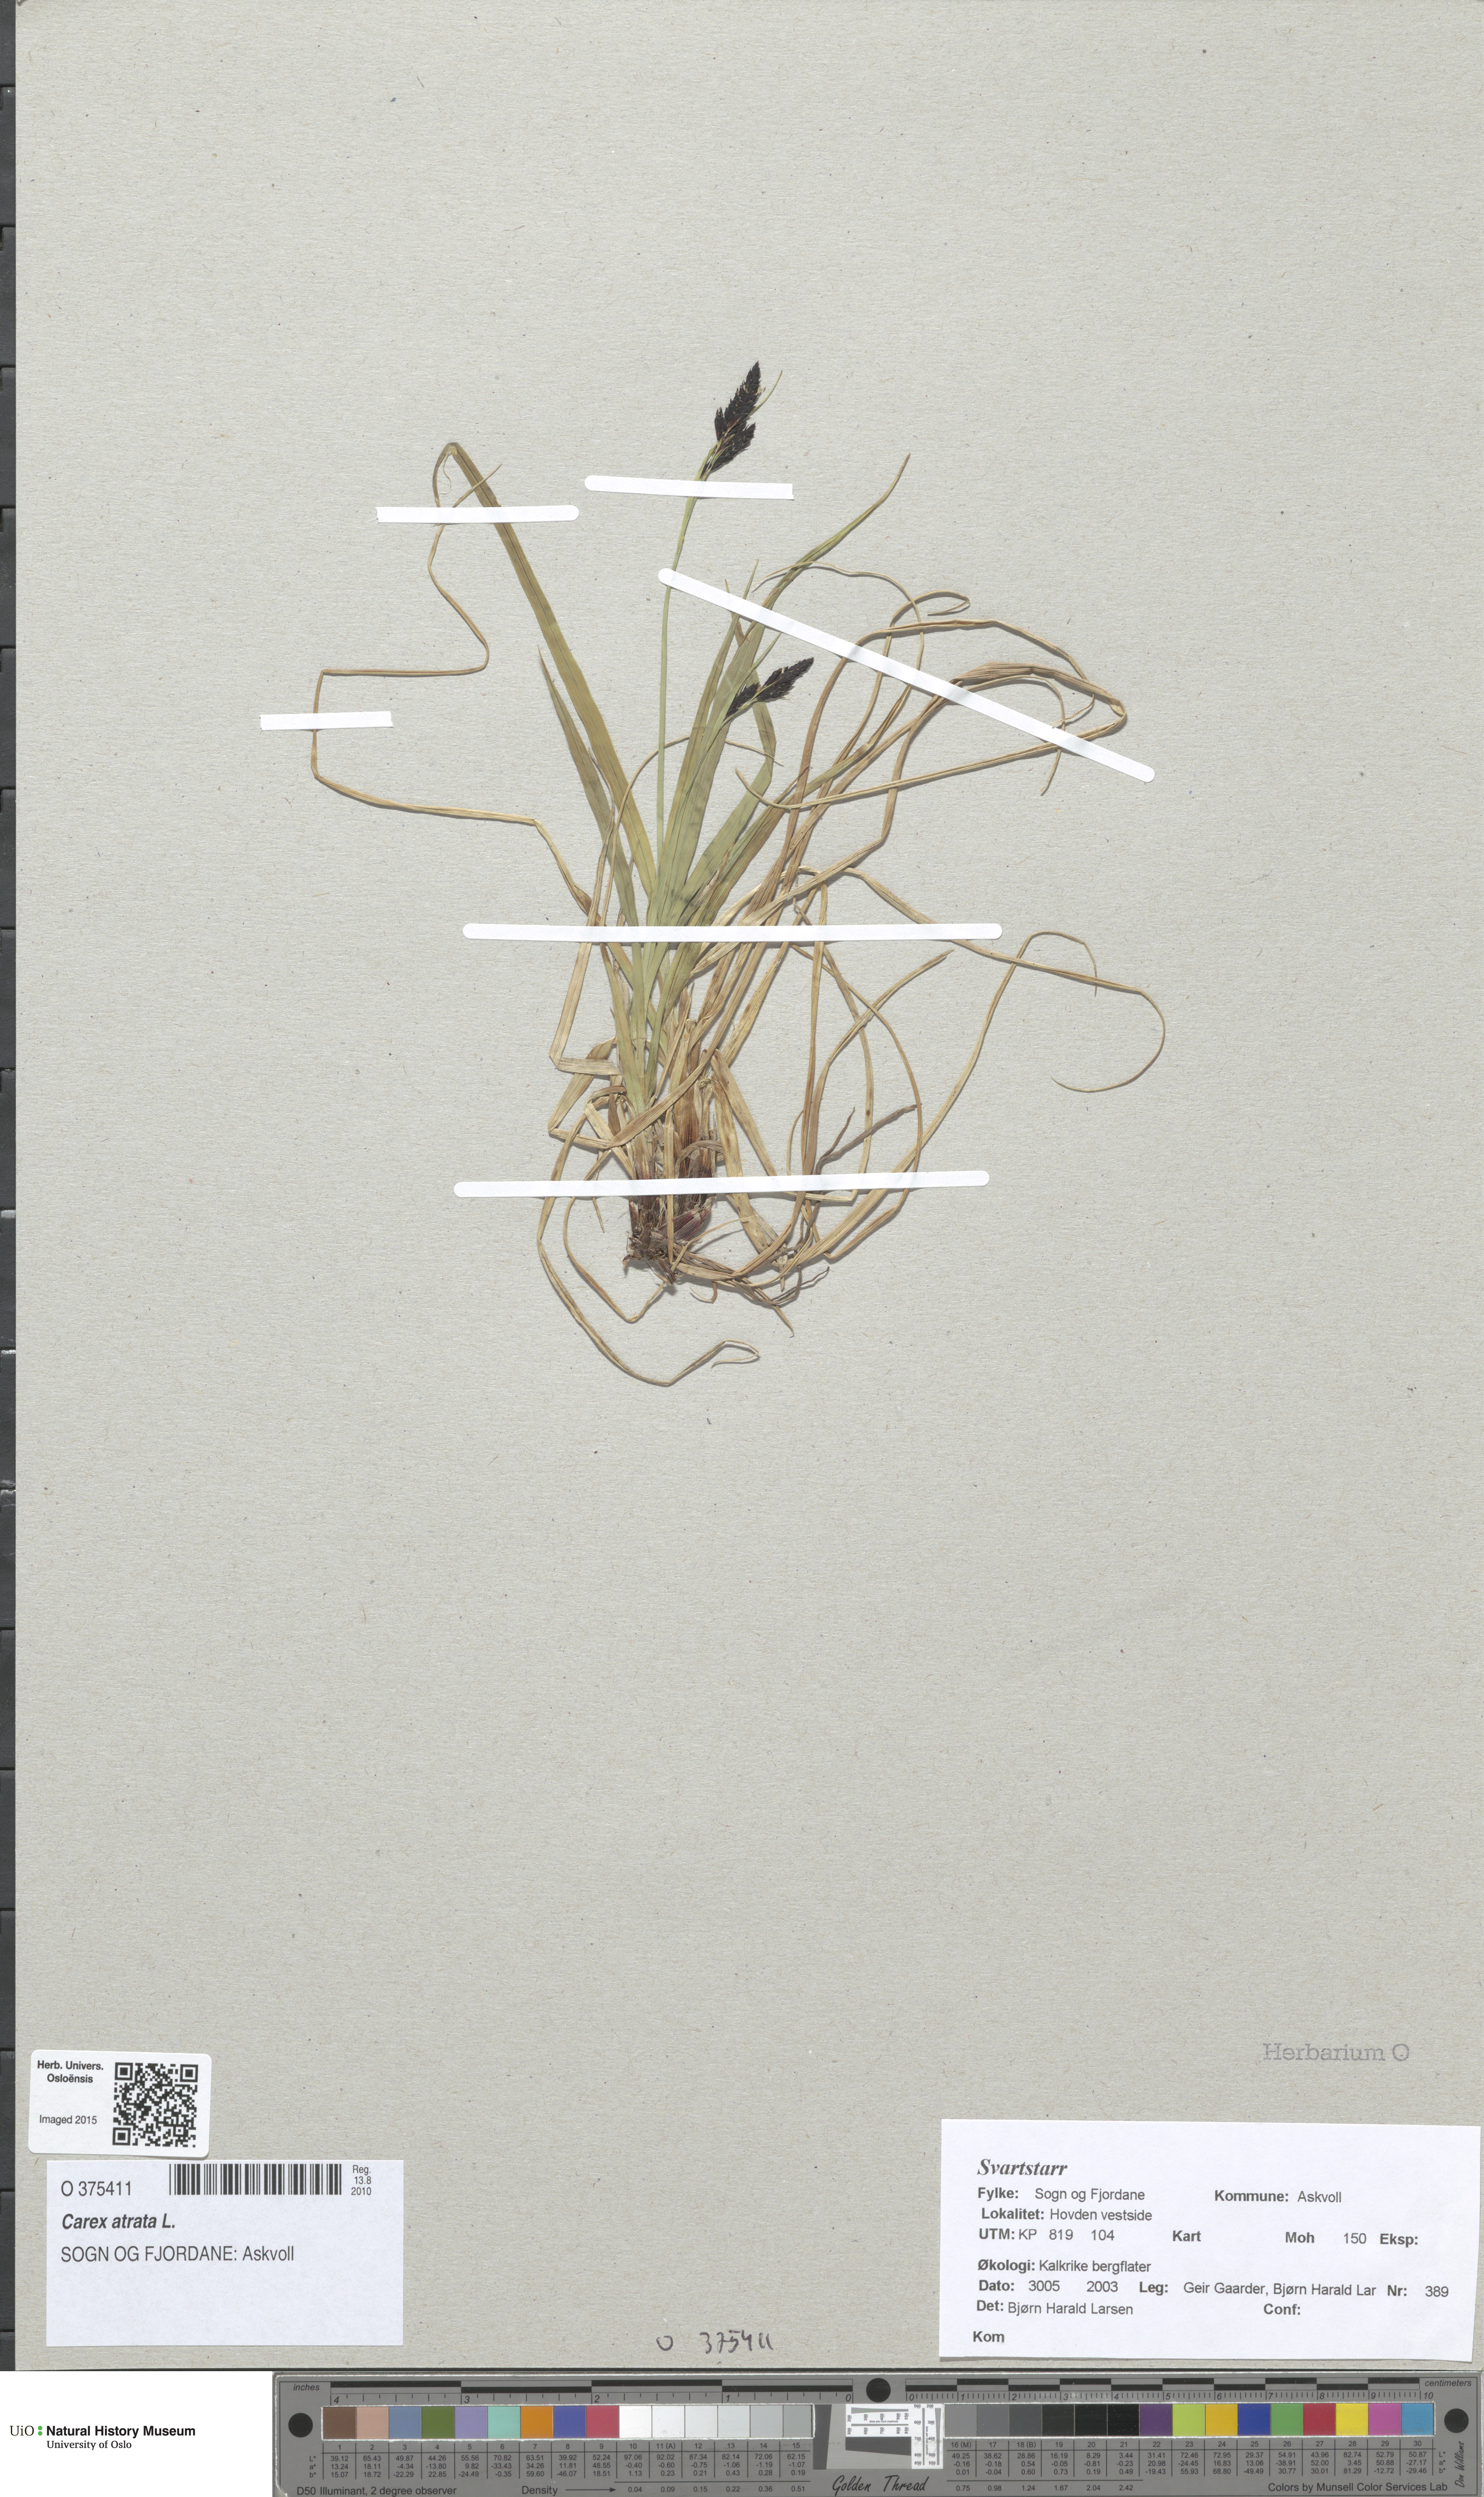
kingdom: Plantae
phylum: Tracheophyta
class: Liliopsida
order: Poales
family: Cyperaceae
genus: Carex
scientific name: Carex atrata
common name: Black alpine sedge
